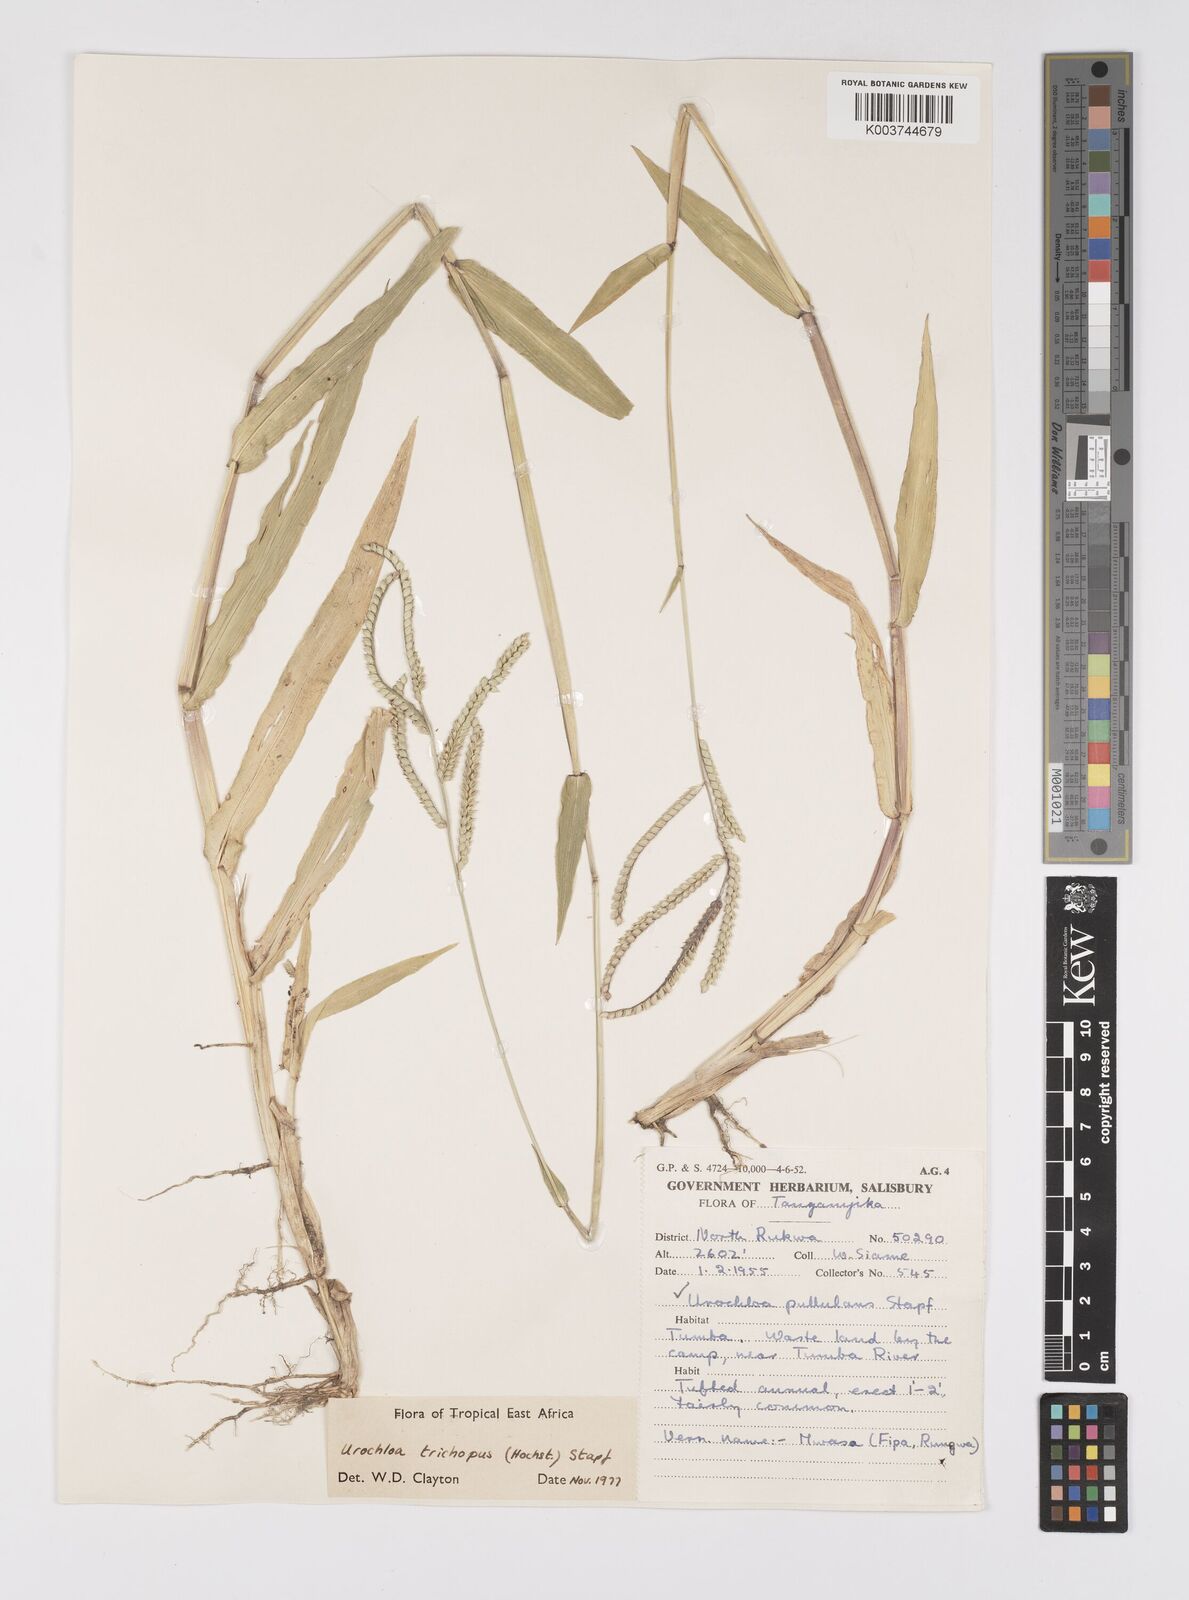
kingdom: Plantae
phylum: Tracheophyta
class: Liliopsida
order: Poales
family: Poaceae
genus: Urochloa
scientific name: Urochloa trichopus
